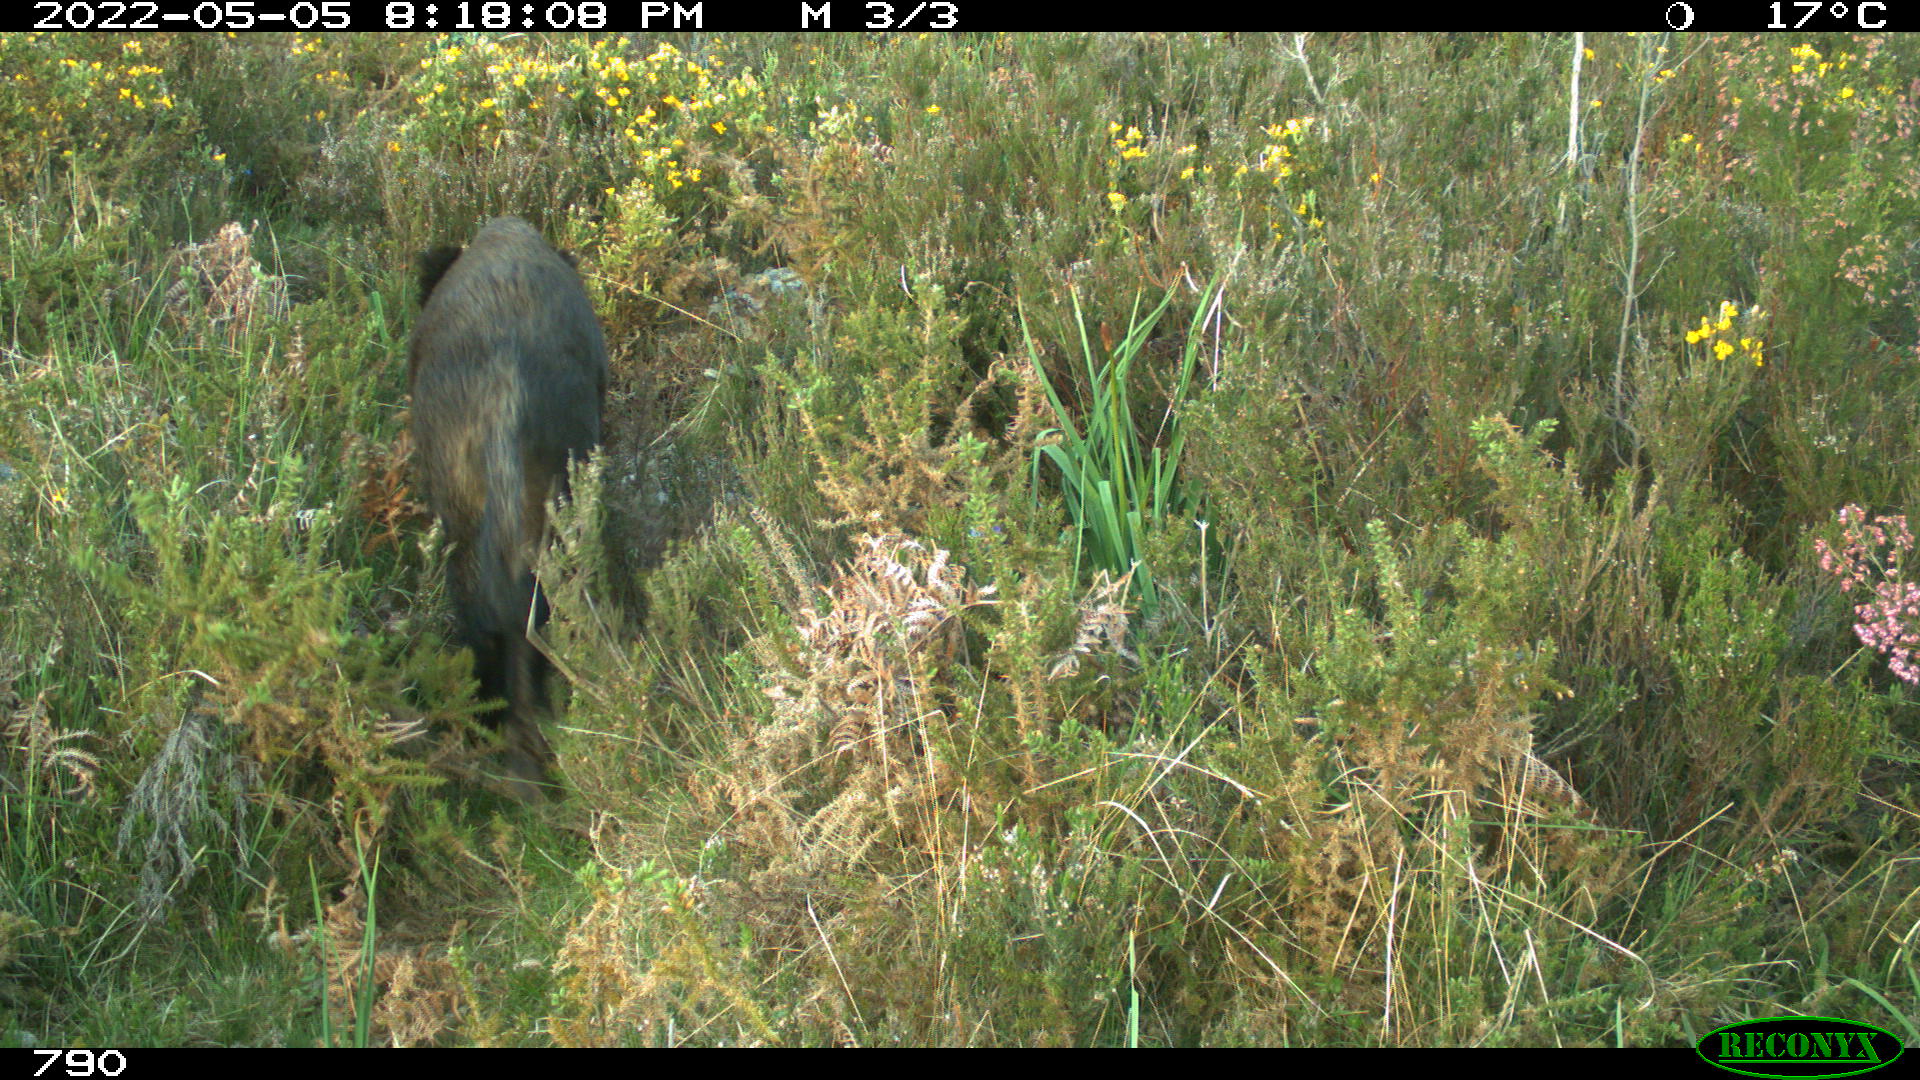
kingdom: Animalia
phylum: Chordata
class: Mammalia
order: Artiodactyla
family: Suidae
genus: Sus
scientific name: Sus scrofa
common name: Wild boar
